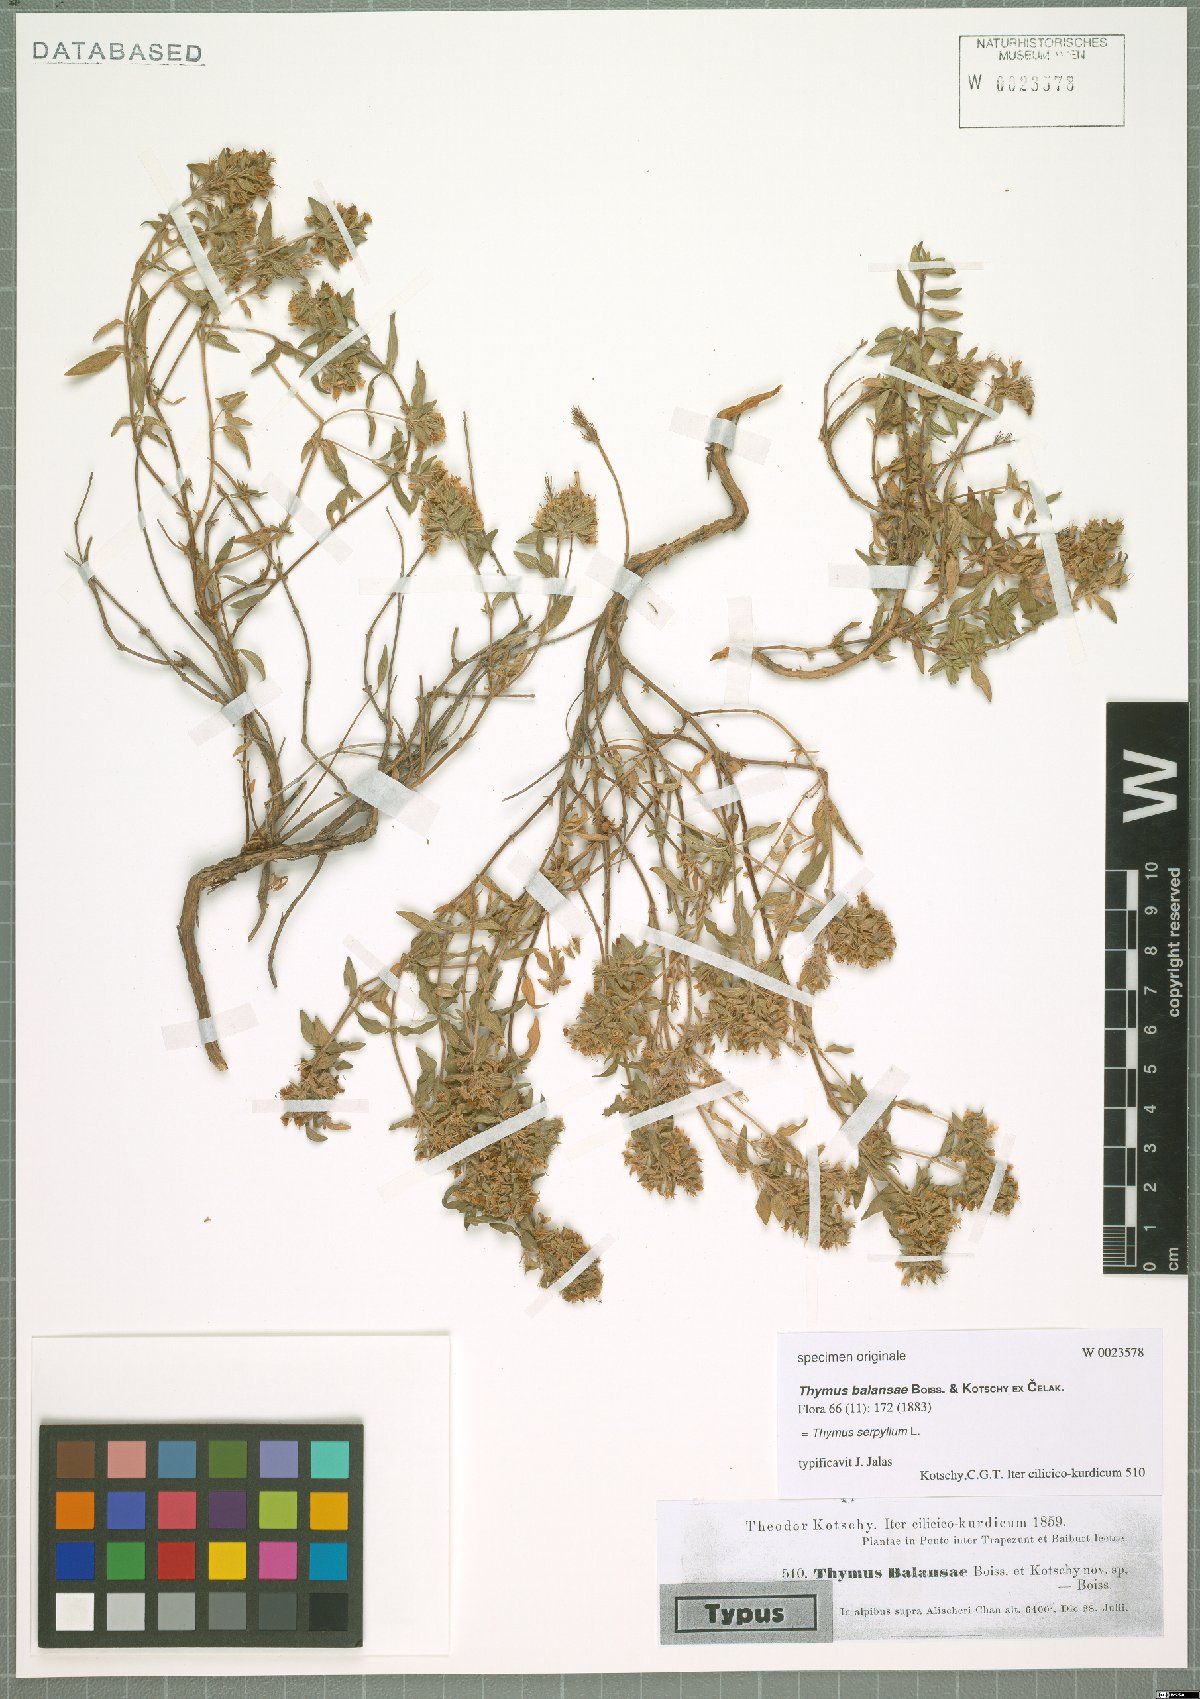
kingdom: Plantae
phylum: Tracheophyta
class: Magnoliopsida
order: Lamiales
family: Lamiaceae
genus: Thymus
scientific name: Thymus serpyllum
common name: Breckland thyme
